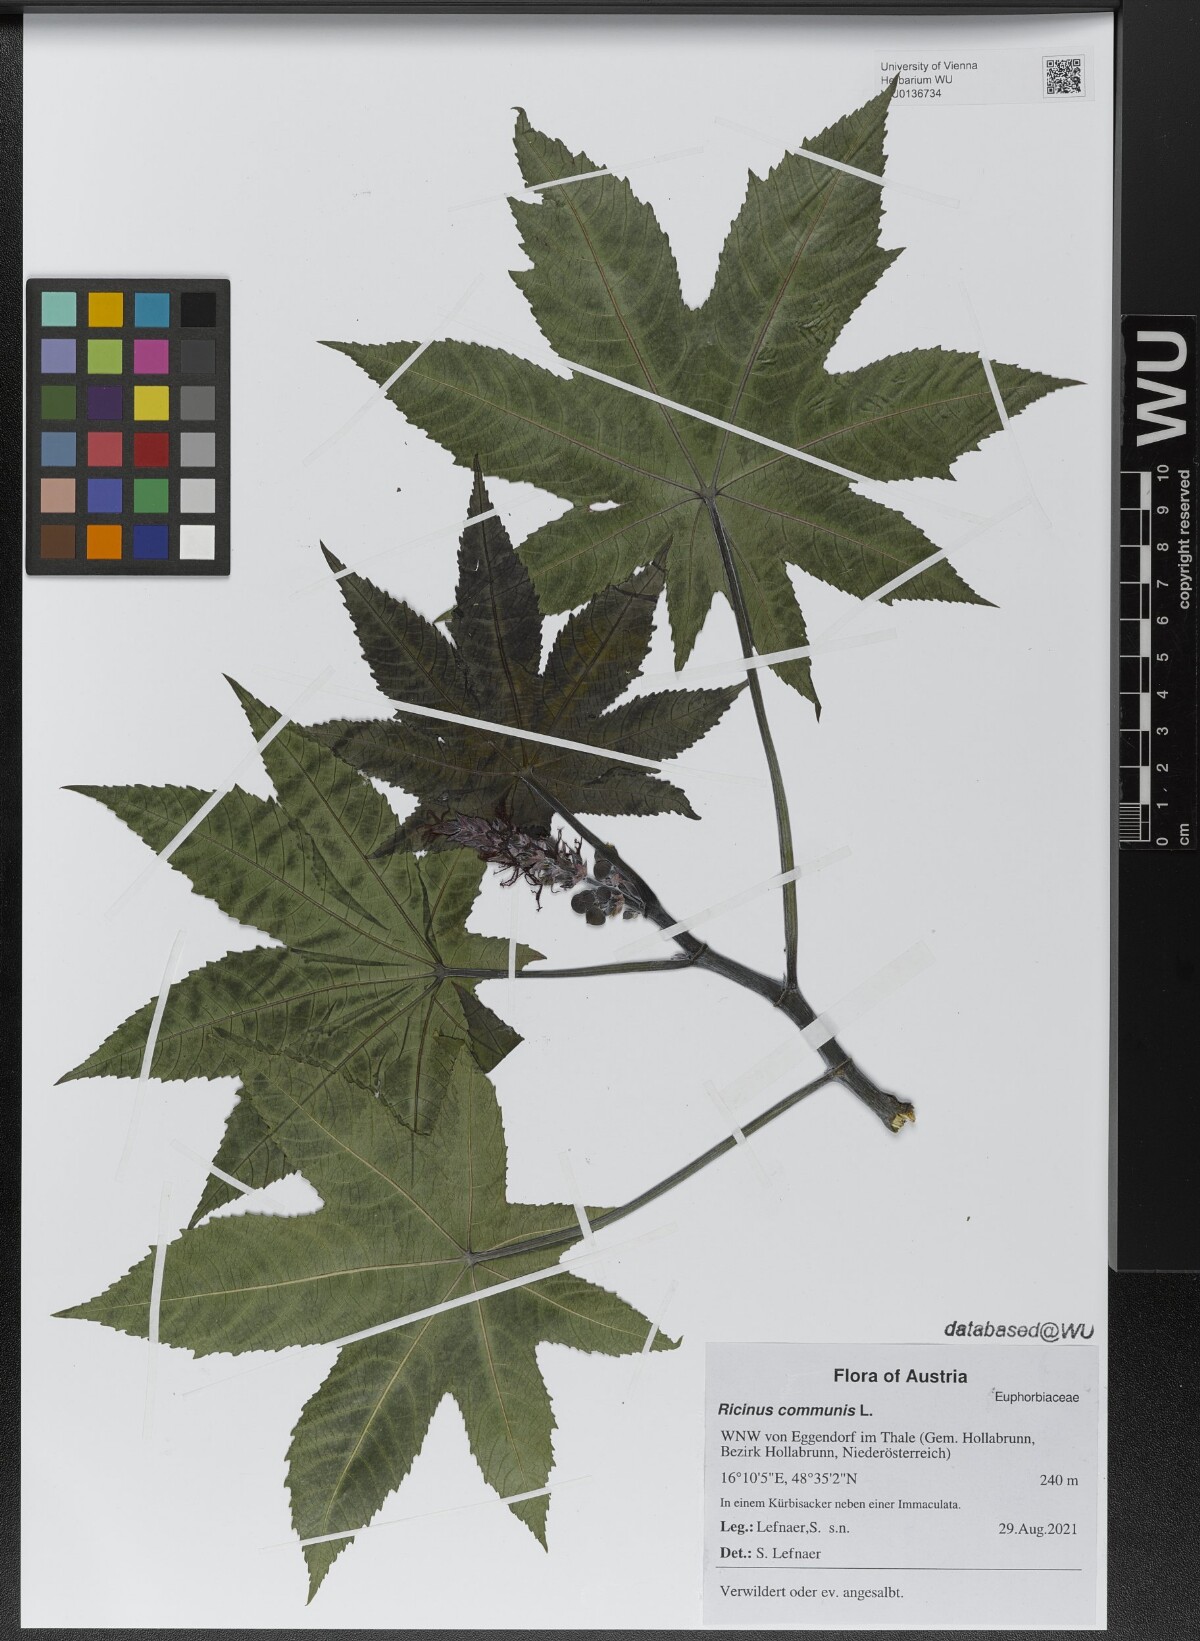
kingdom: Plantae
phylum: Tracheophyta
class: Magnoliopsida
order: Malpighiales
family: Euphorbiaceae
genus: Ricinus
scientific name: Ricinus communis
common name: Castor-oil-plant
